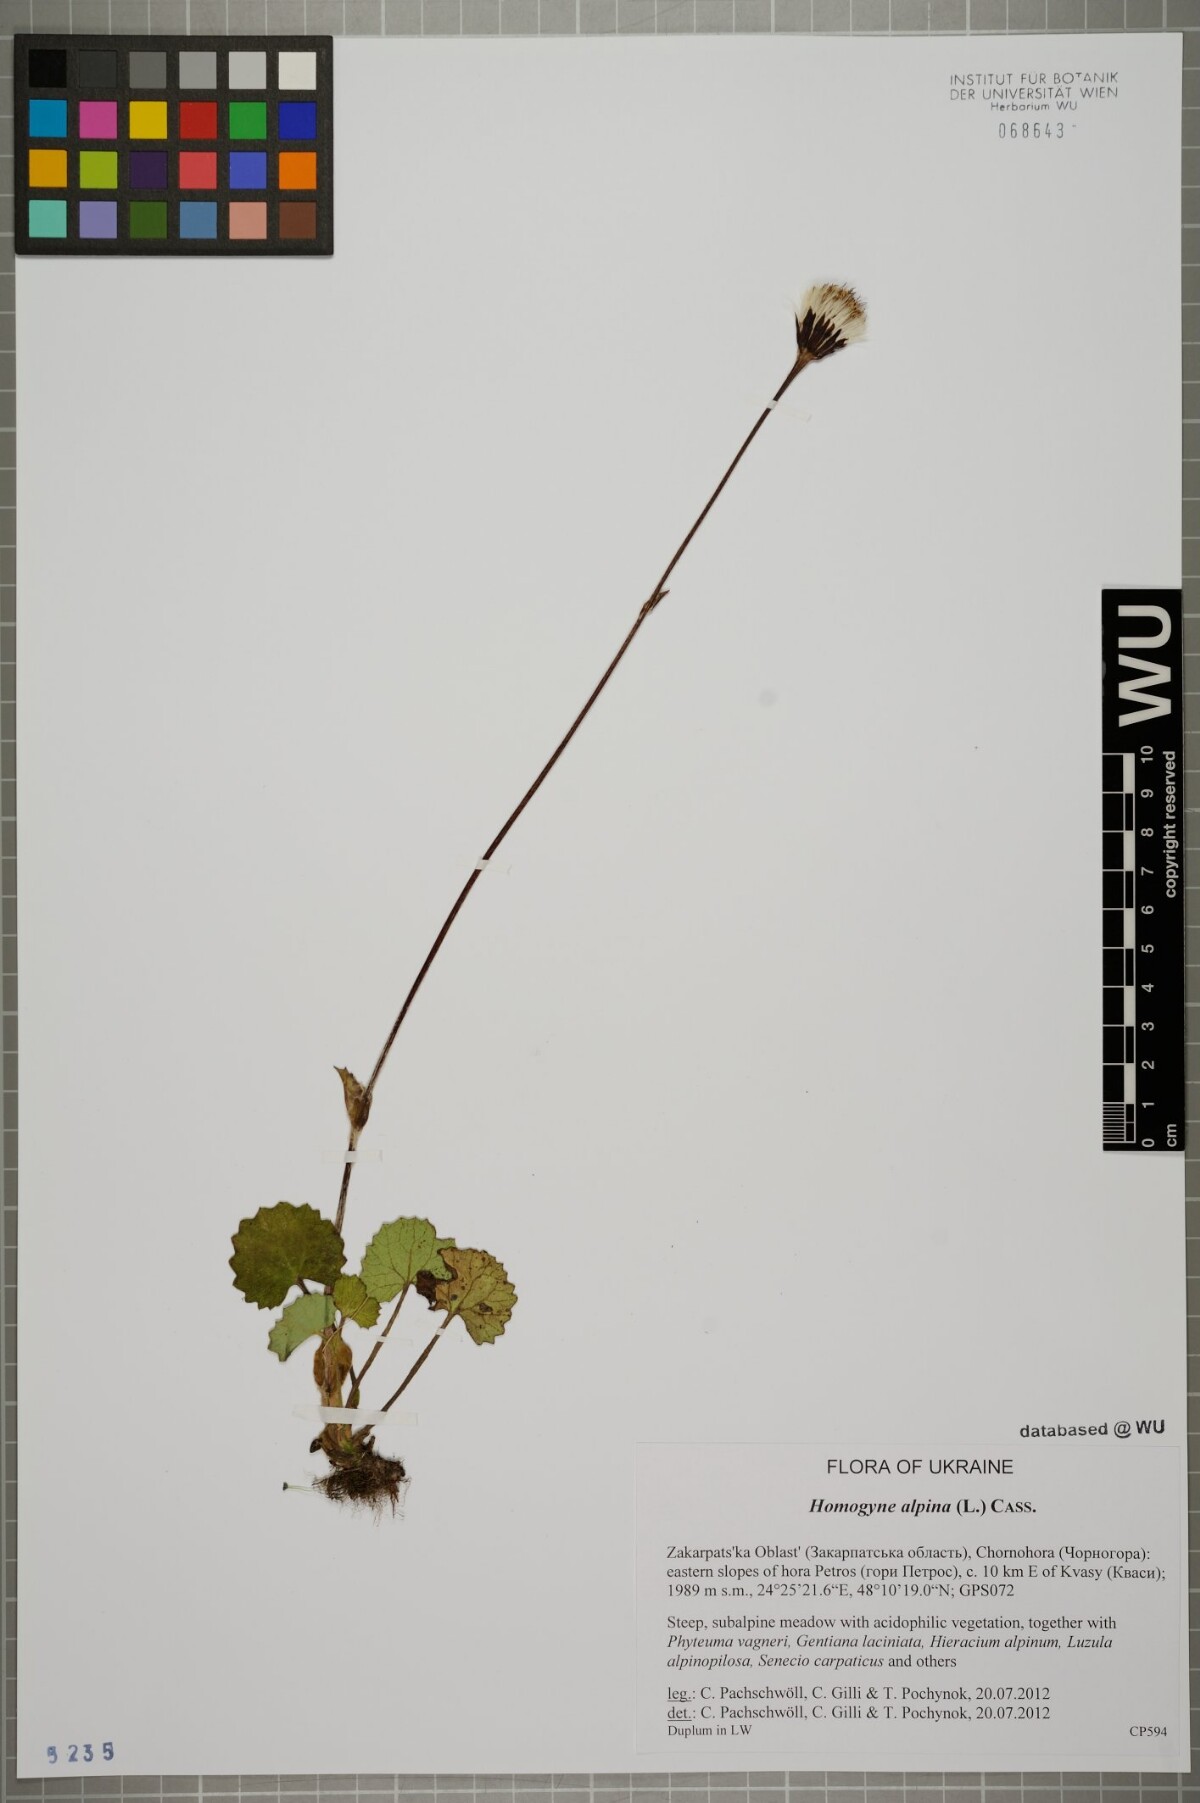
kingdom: Plantae
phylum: Tracheophyta
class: Magnoliopsida
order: Asterales
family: Asteraceae
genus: Homogyne
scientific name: Homogyne alpina
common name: Purple colt's-foot
